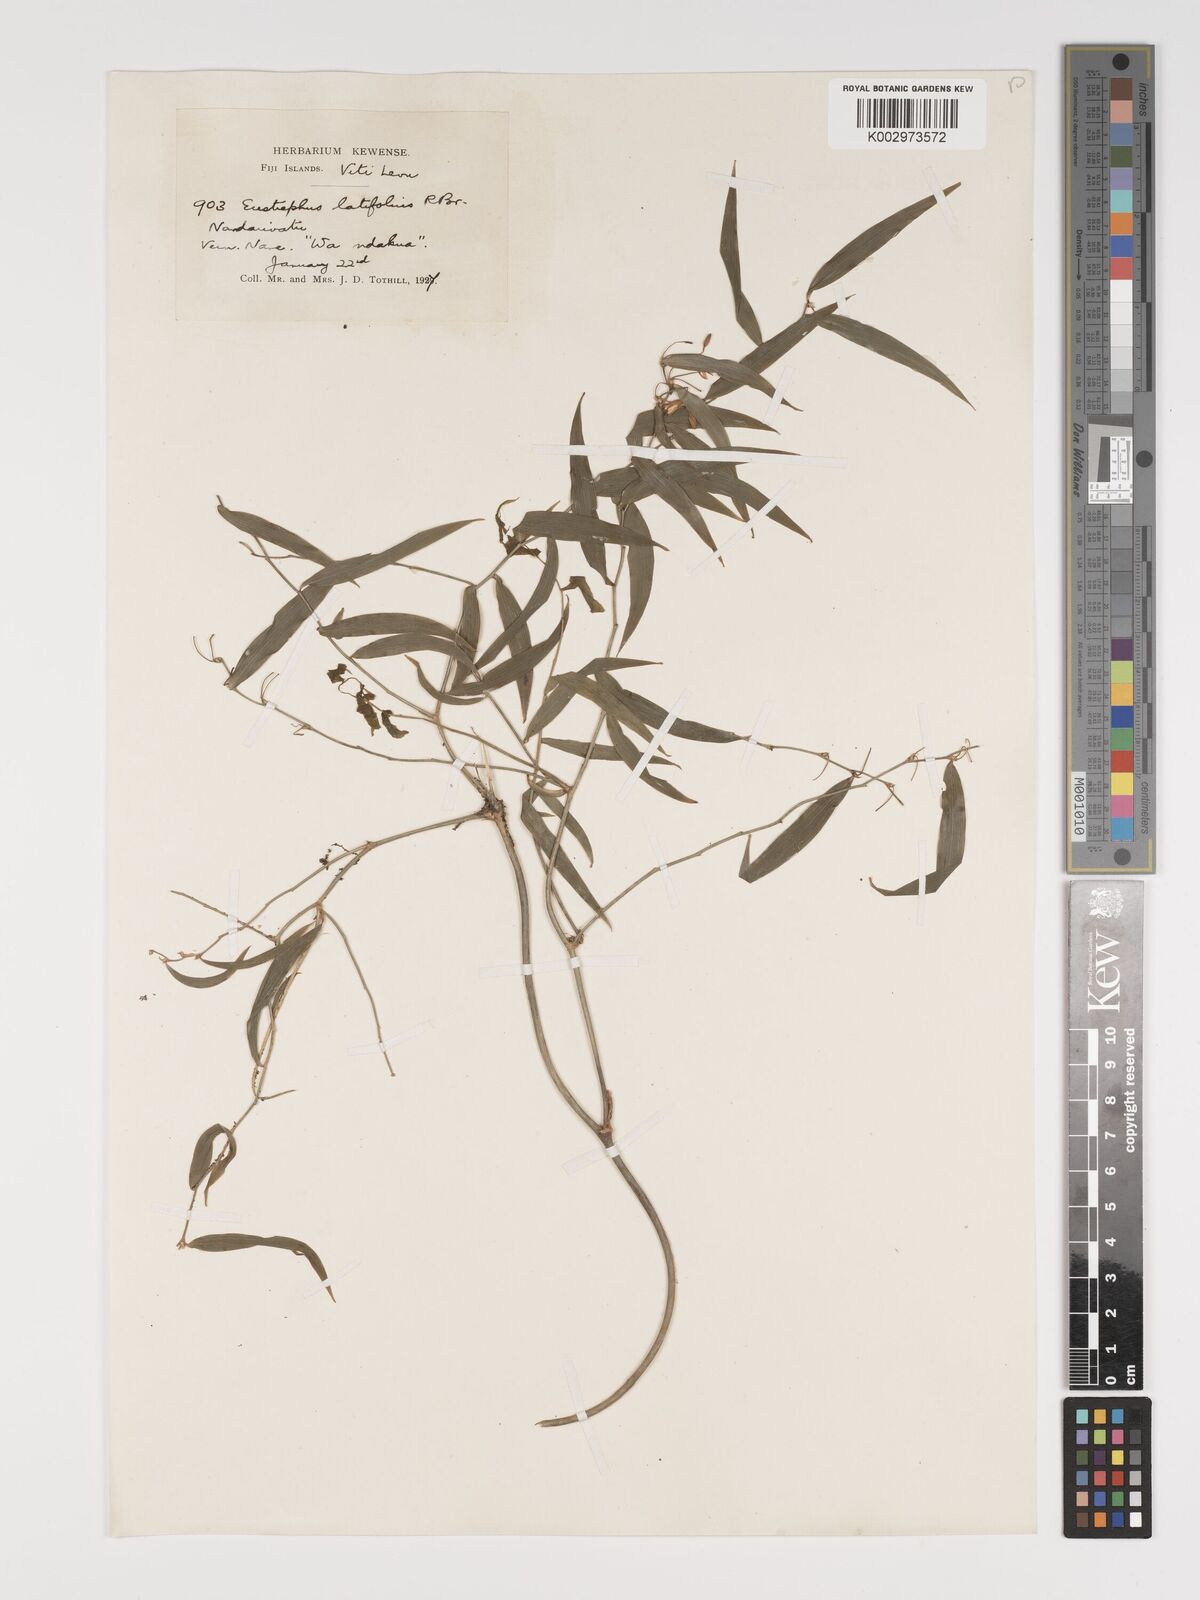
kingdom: Plantae
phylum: Tracheophyta
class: Liliopsida
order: Asparagales
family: Asparagaceae
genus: Eustrephus
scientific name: Eustrephus latifolius
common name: Orangevine
